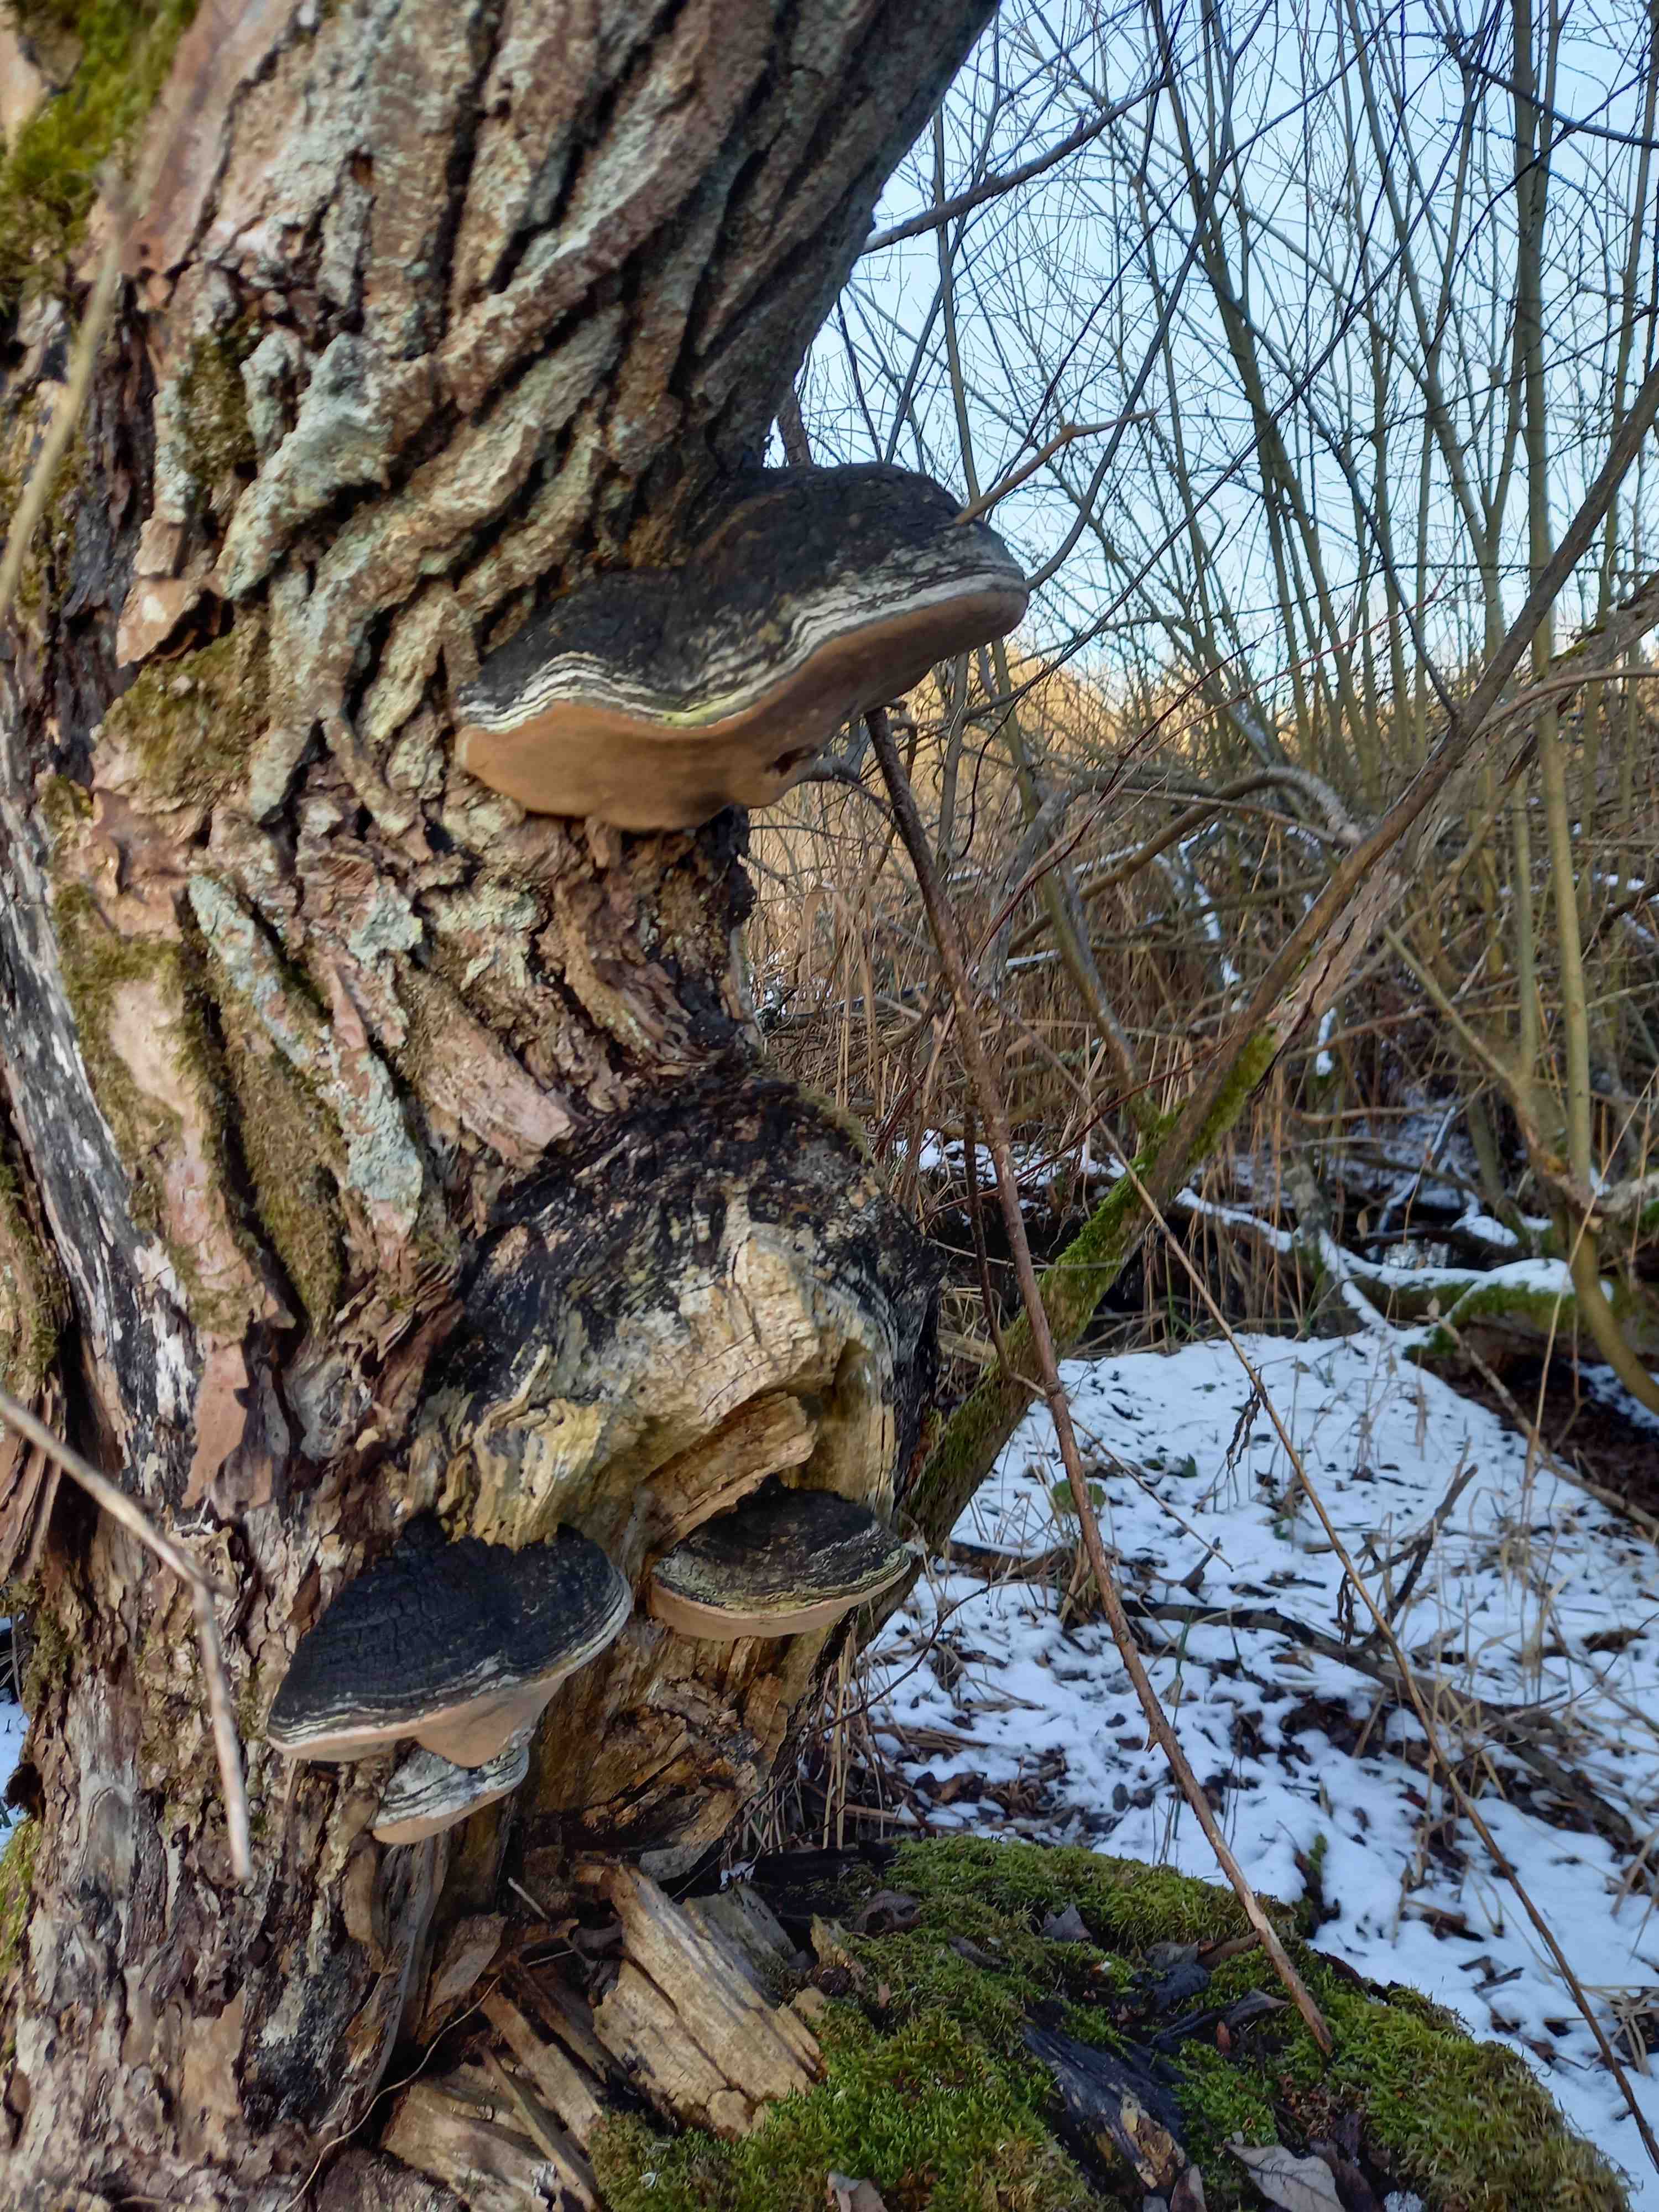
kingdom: Fungi
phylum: Basidiomycota
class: Agaricomycetes
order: Hymenochaetales
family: Hymenochaetaceae
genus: Phellinus
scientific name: Phellinus igniarius
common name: almindelig ildporesvamp
